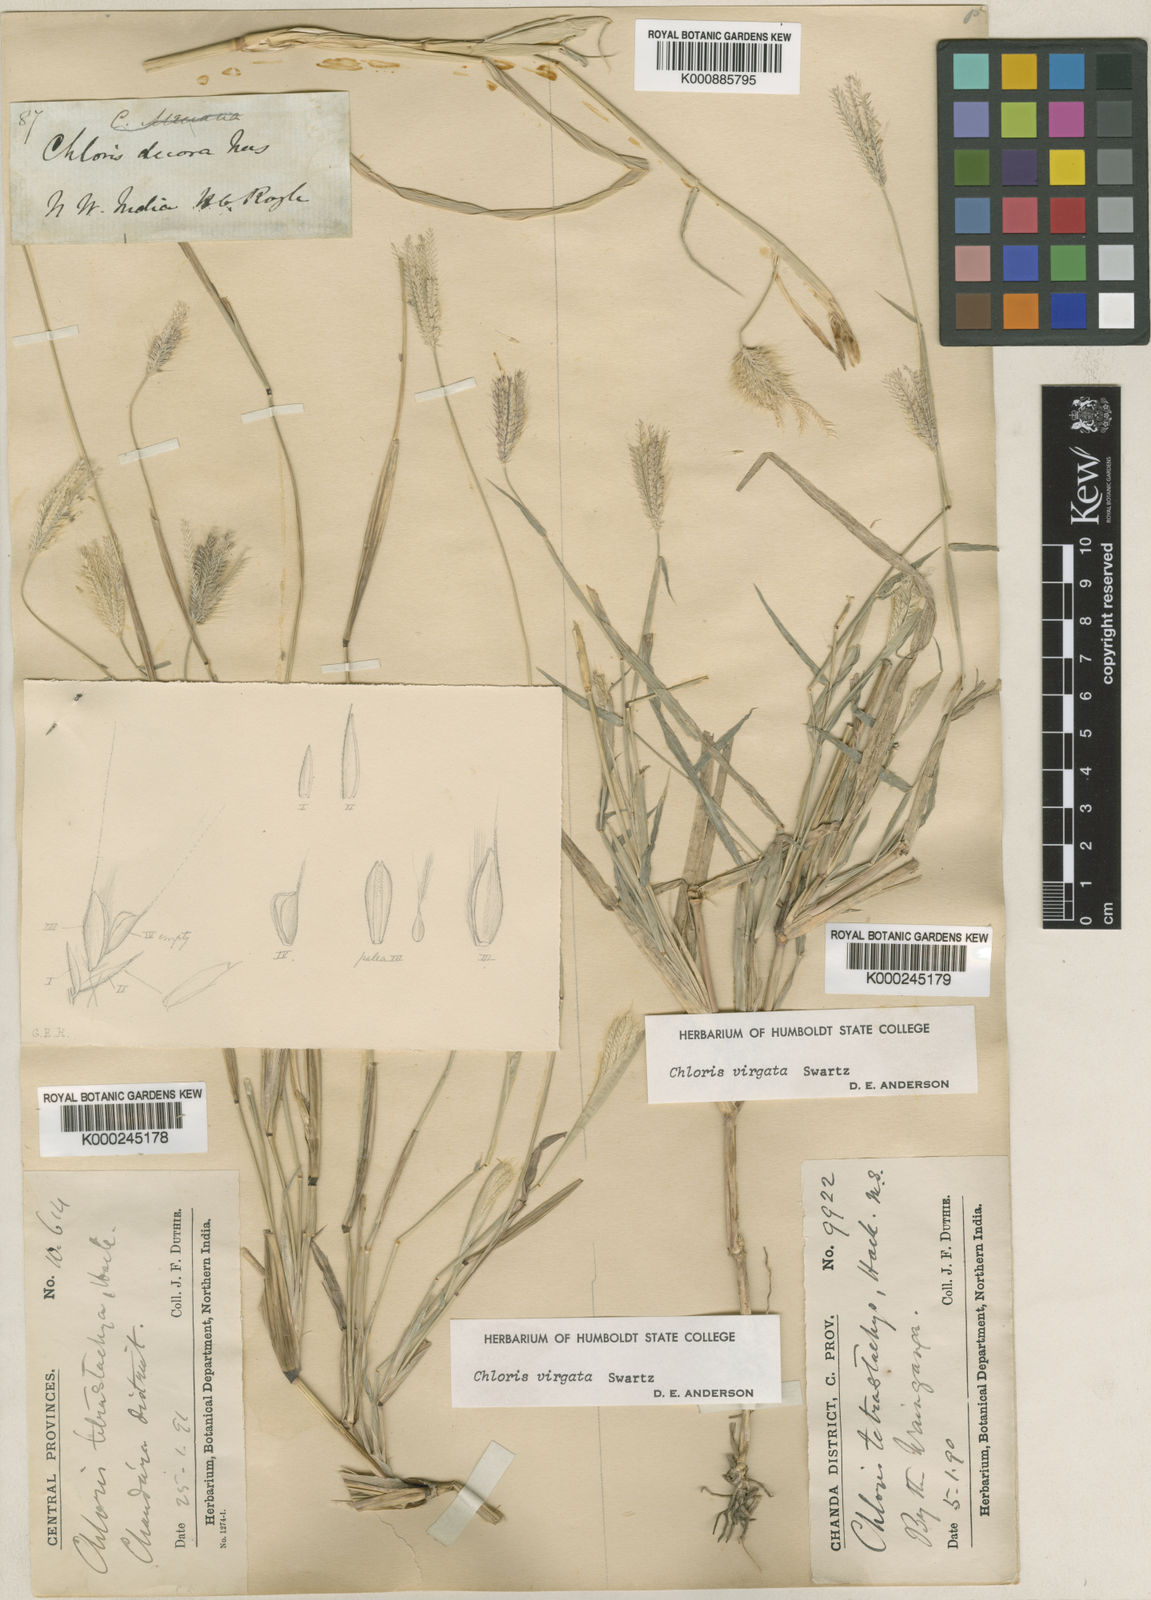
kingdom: Plantae
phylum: Tracheophyta
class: Liliopsida
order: Poales
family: Poaceae
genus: Chloris
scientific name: Chloris virgata
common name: Feathery rhodes-grass
